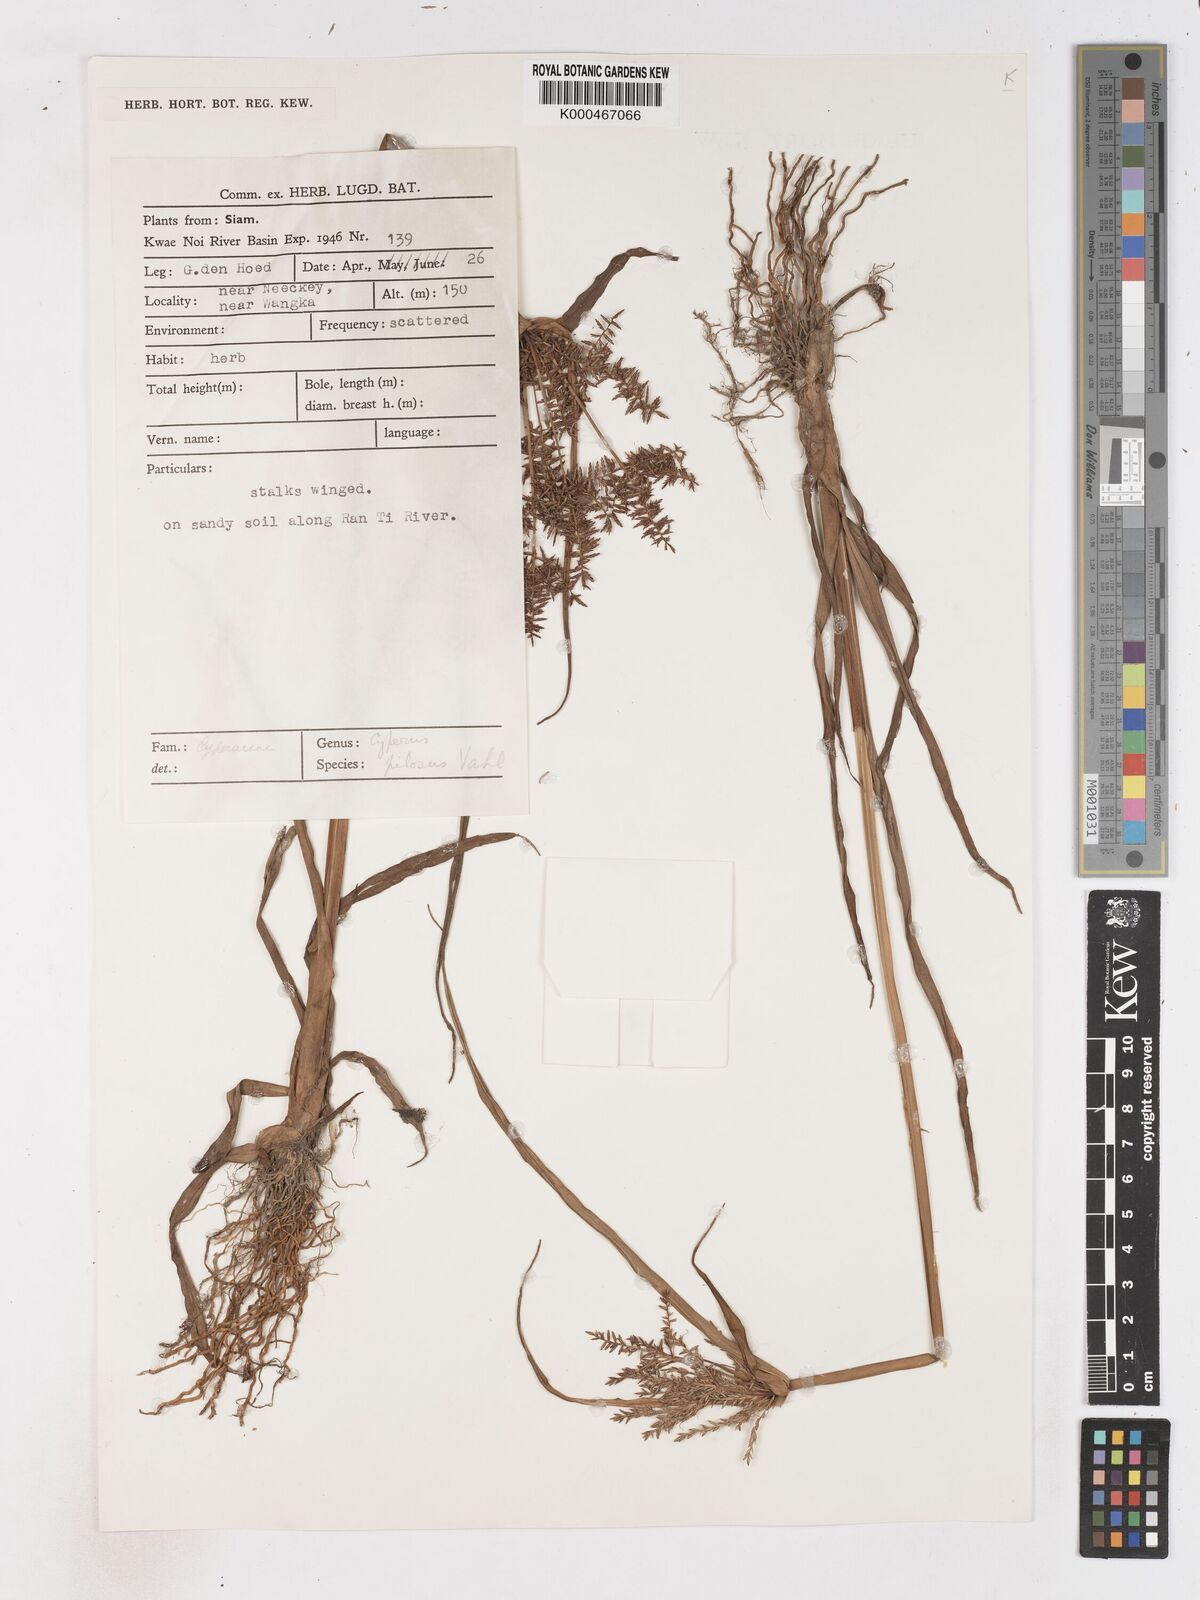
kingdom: Plantae
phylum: Tracheophyta
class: Liliopsida
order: Poales
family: Cyperaceae
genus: Cyperus
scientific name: Cyperus pilosus
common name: Fuzzy flatsedge
